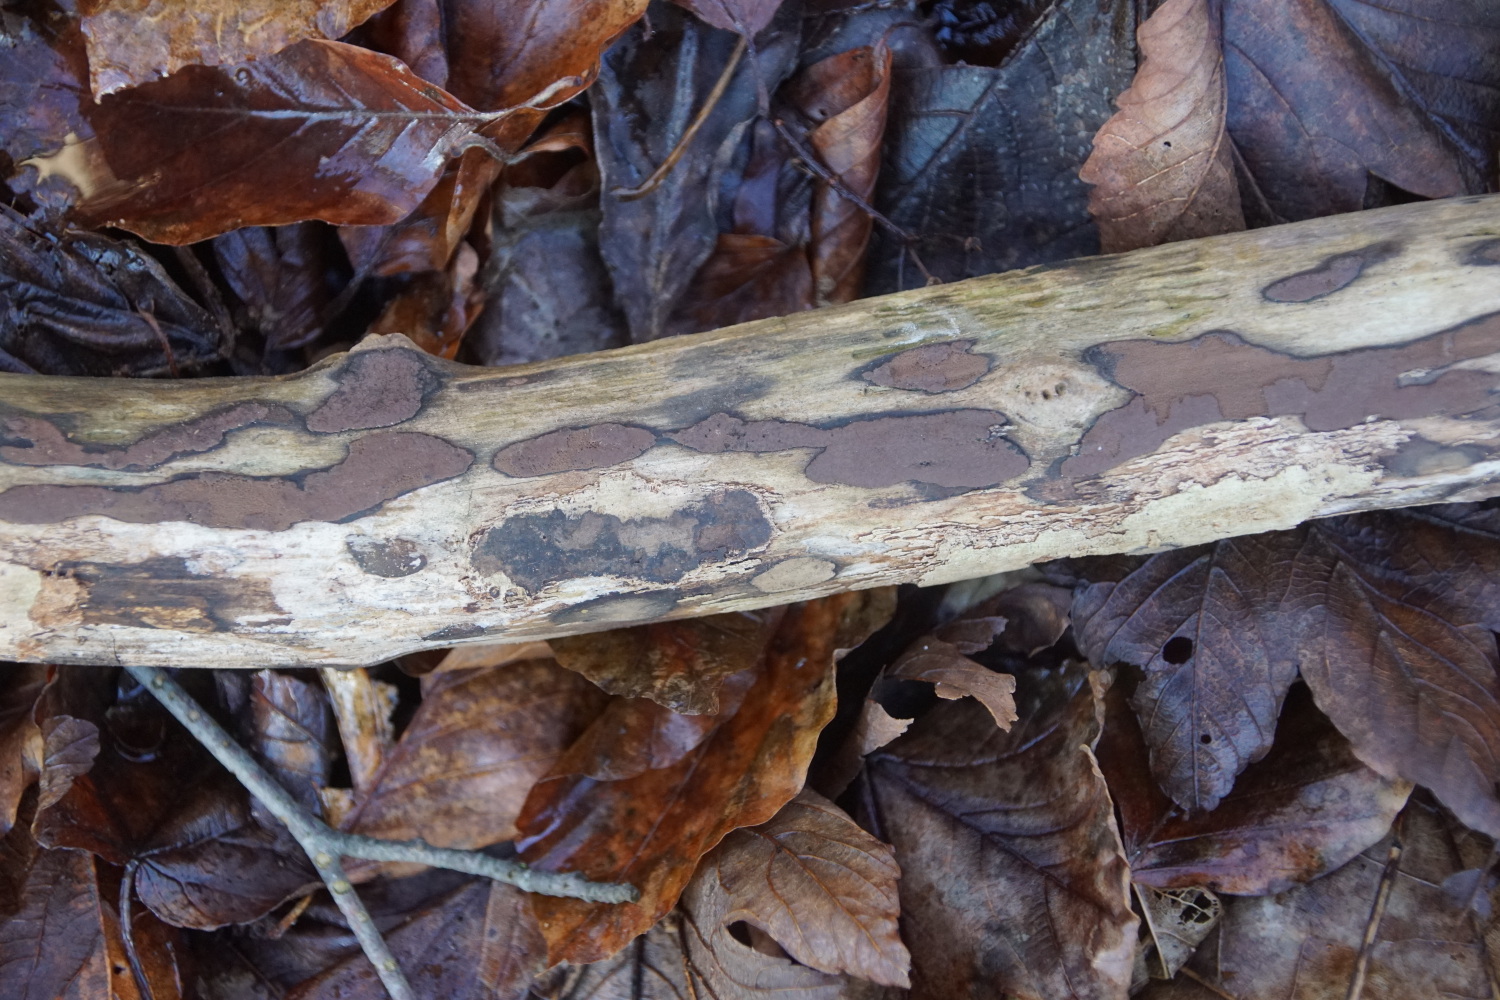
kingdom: Fungi
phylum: Ascomycota
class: Sordariomycetes
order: Xylariales
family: Hypoxylaceae
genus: Hypoxylon
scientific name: Hypoxylon petriniae
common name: nedsænket kulbær
